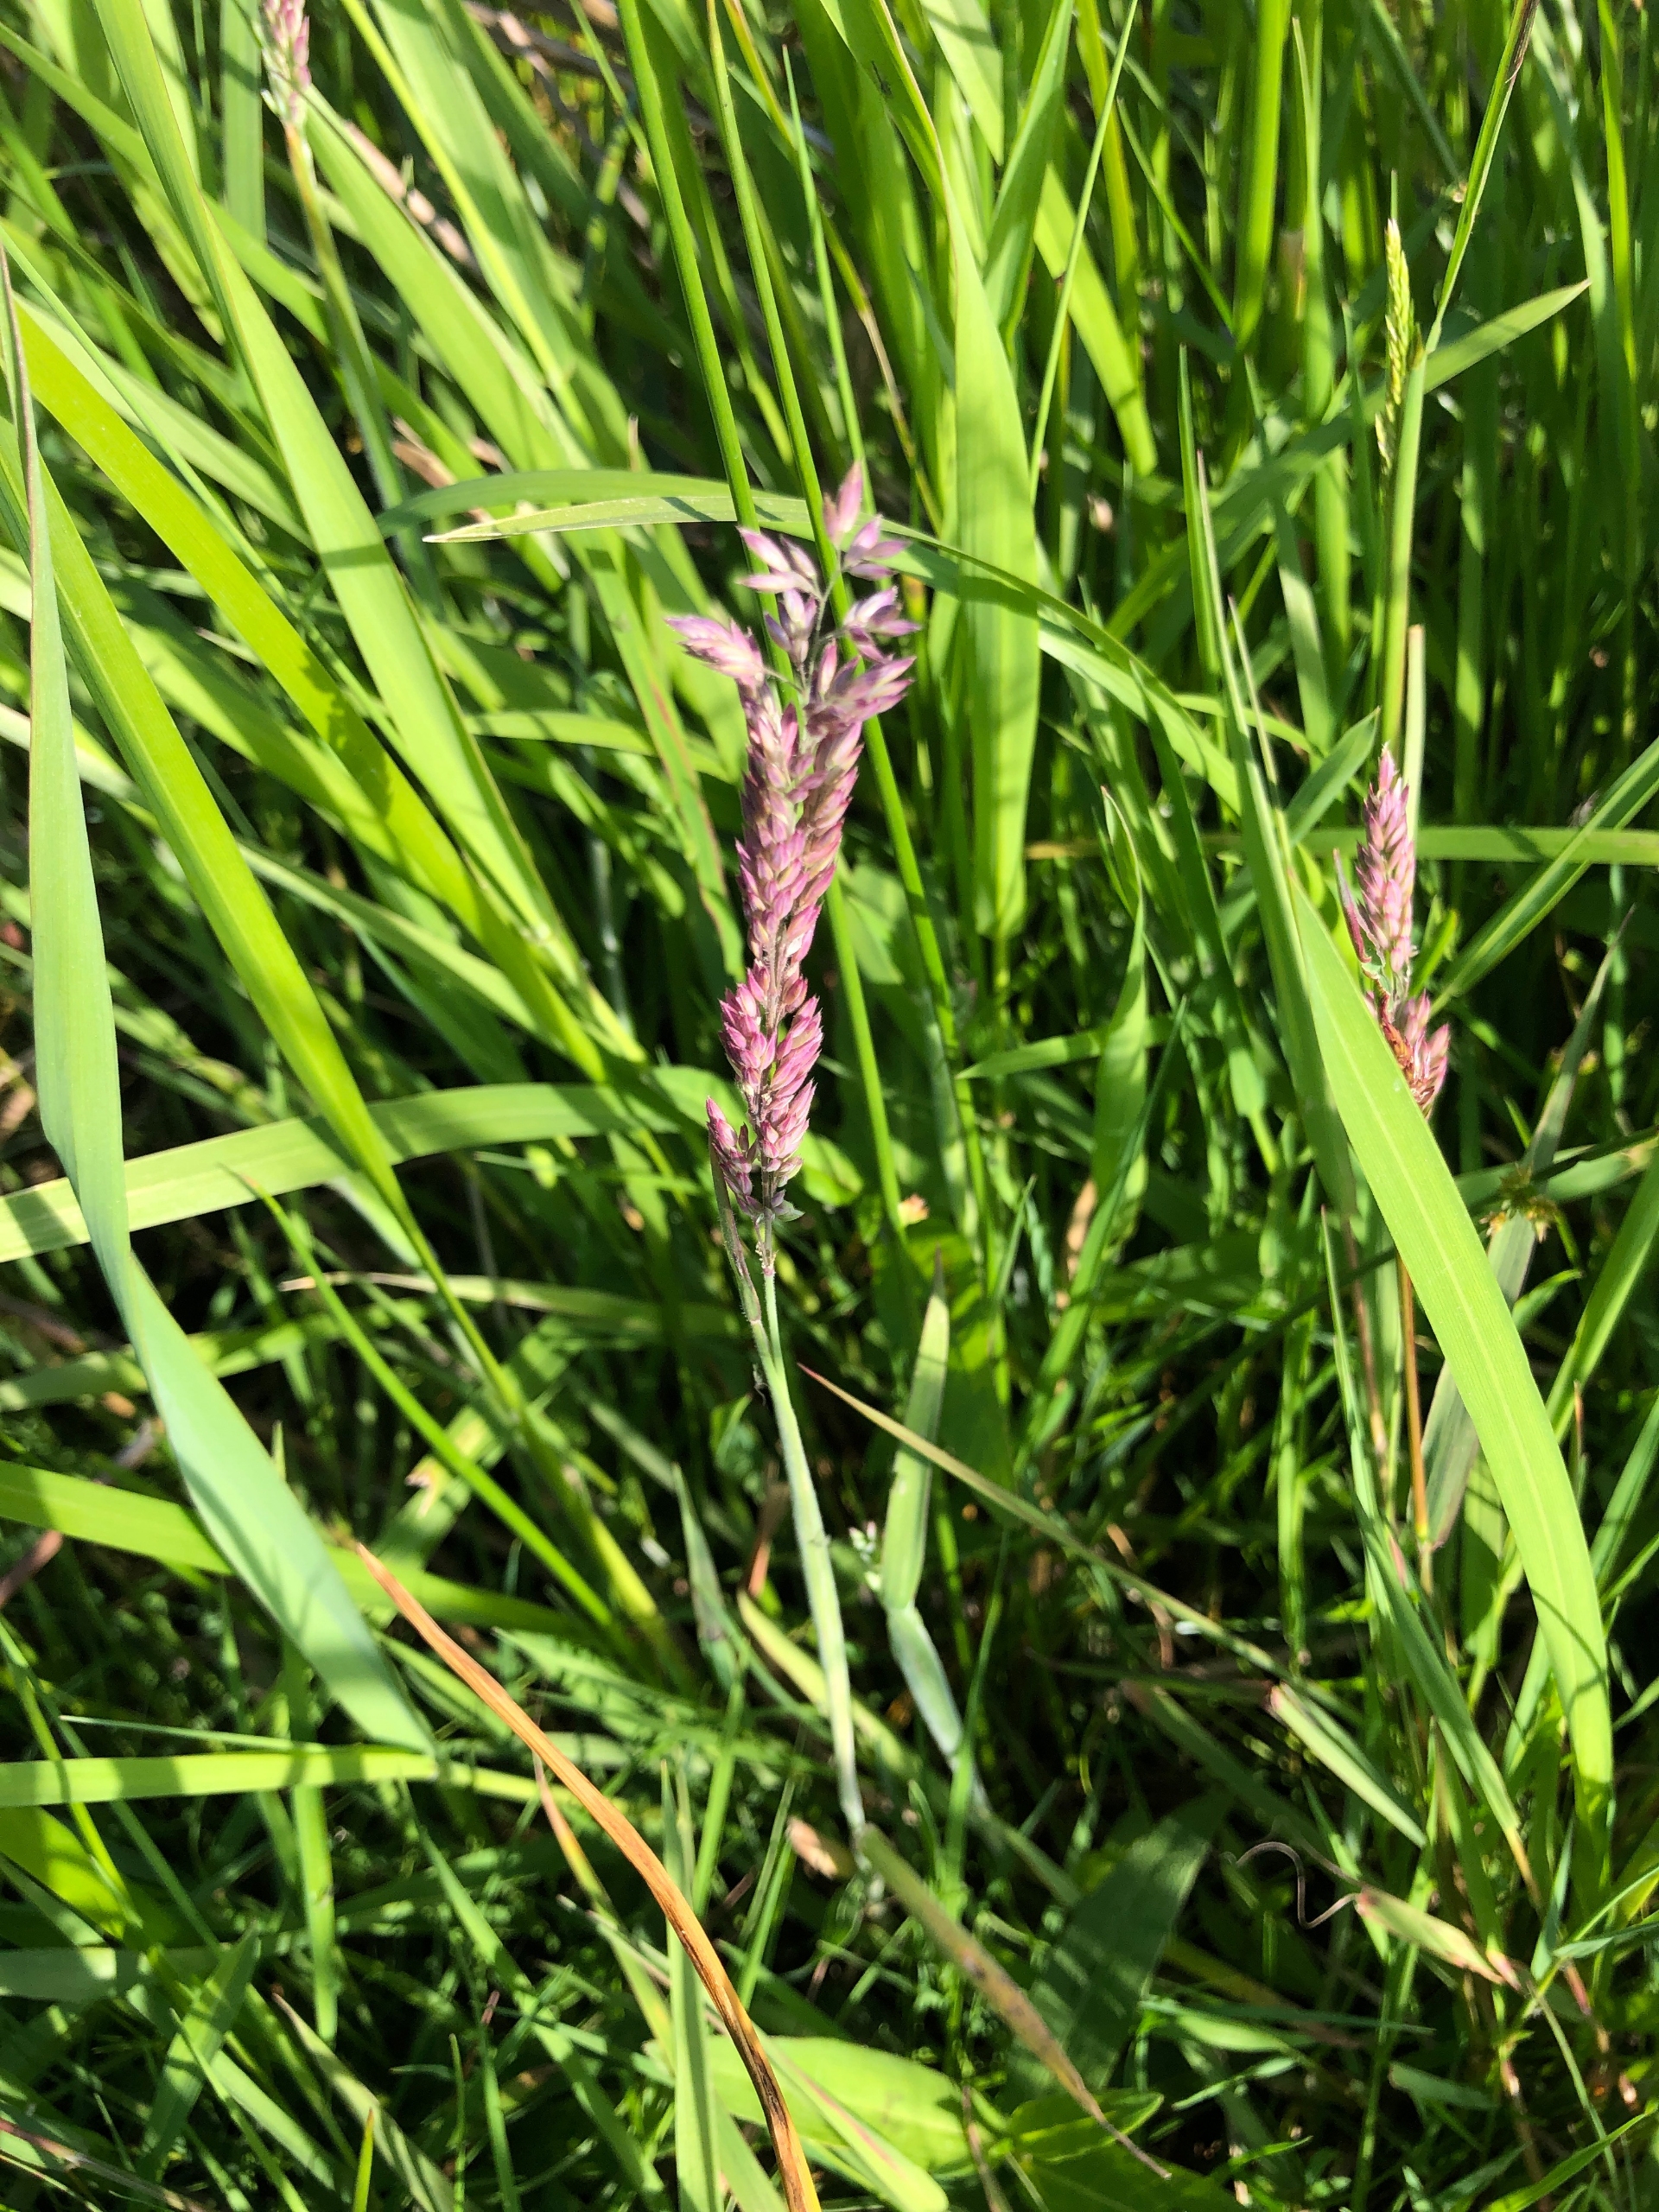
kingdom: Plantae
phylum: Tracheophyta
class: Liliopsida
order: Poales
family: Poaceae
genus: Holcus
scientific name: Holcus lanatus
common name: Fløjlsgræs
